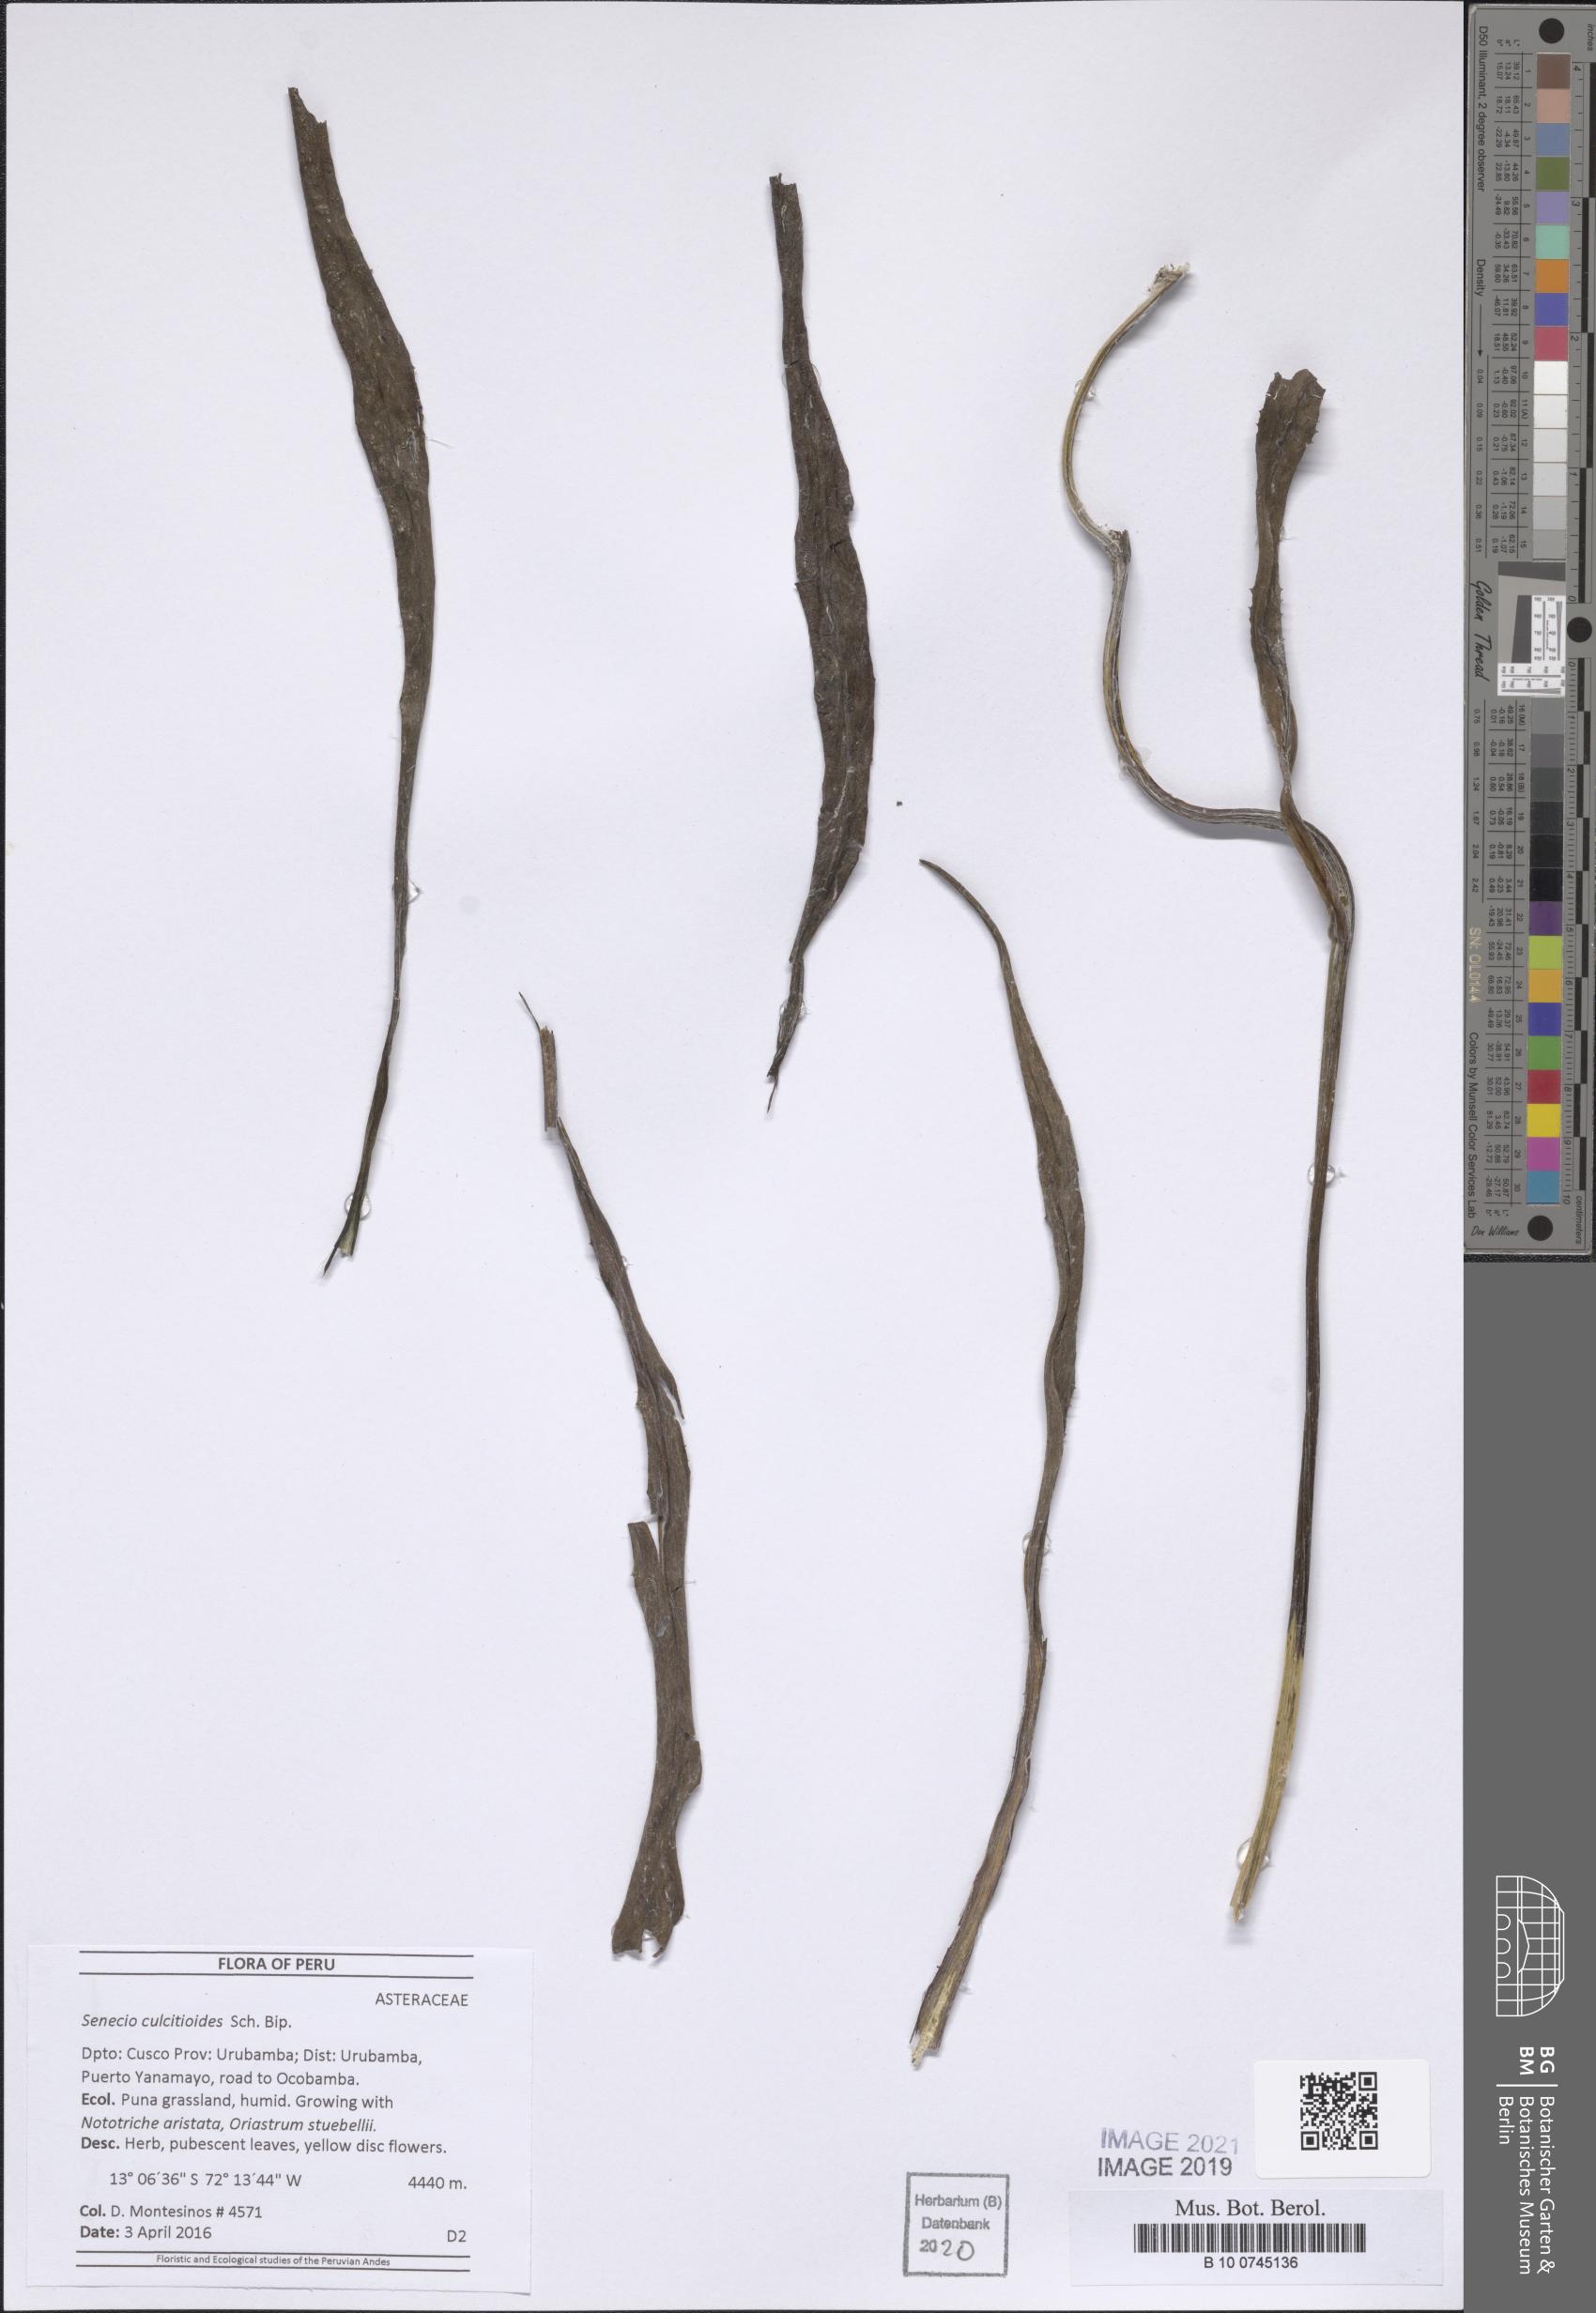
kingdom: Plantae
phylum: Tracheophyta
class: Magnoliopsida
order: Asterales
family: Asteraceae
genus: Senecio
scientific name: Senecio comosus
